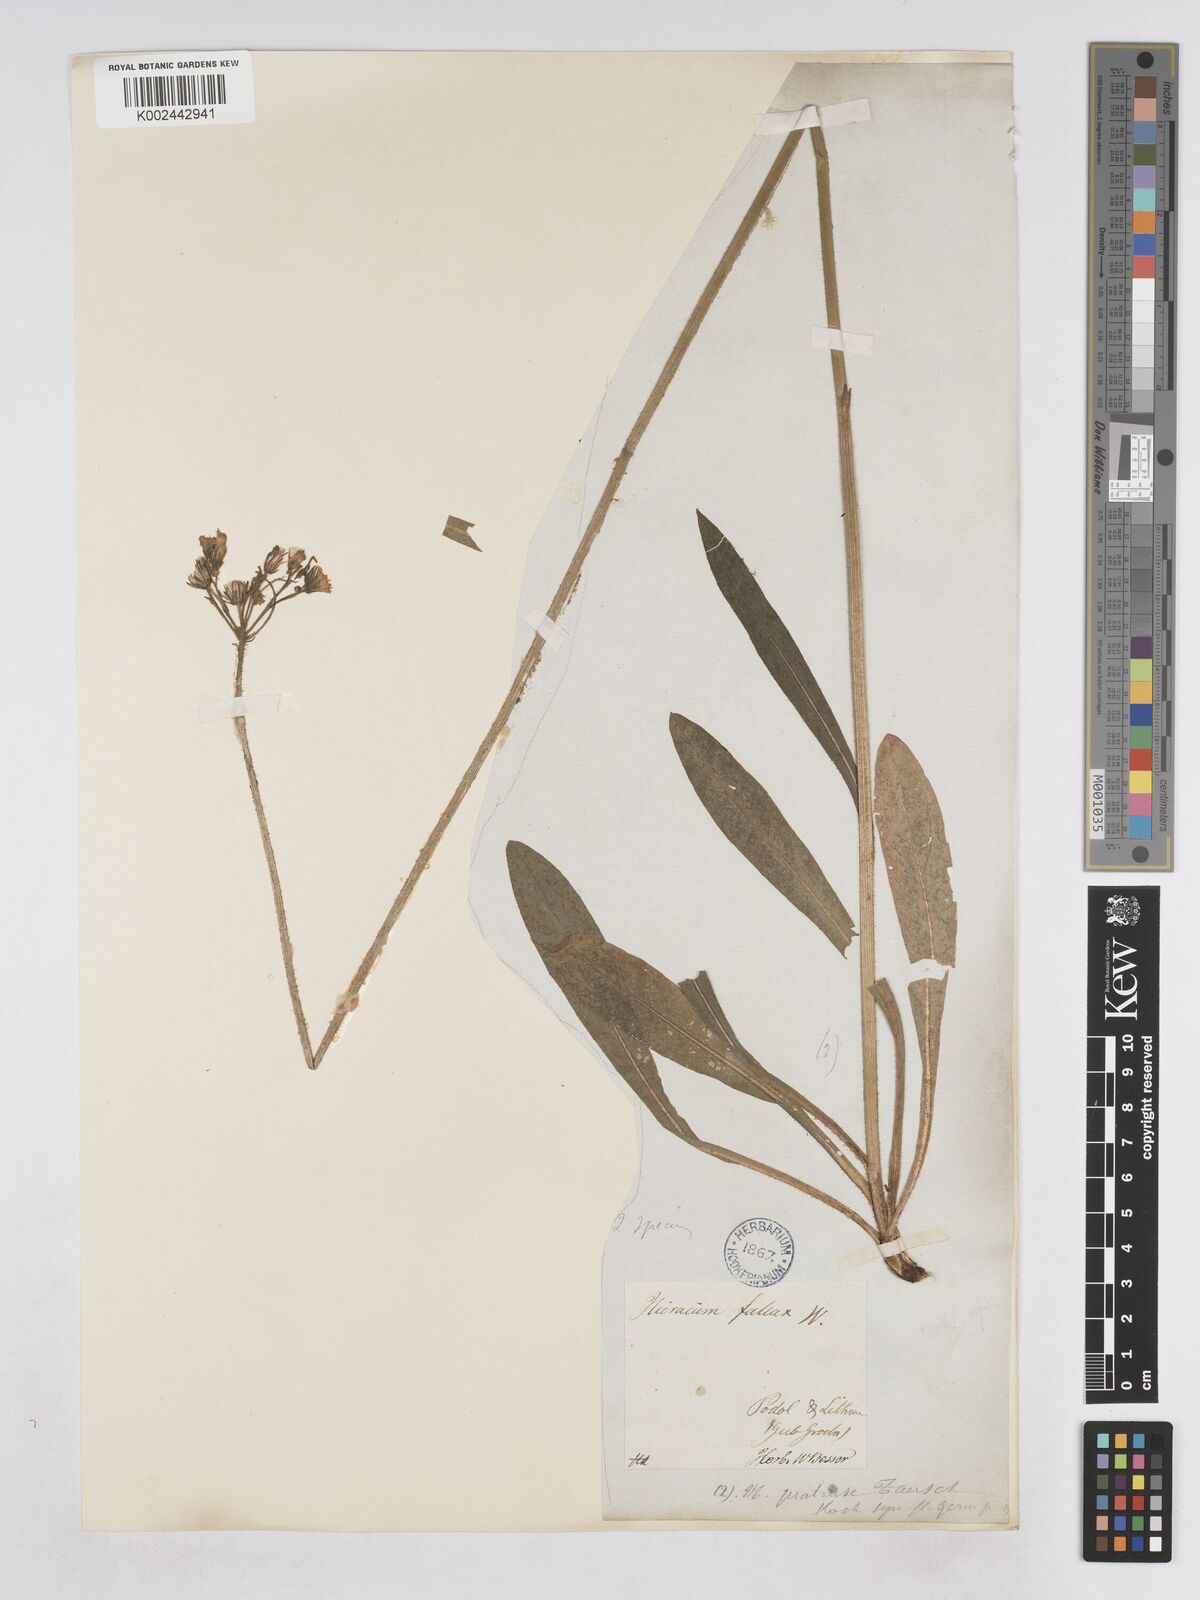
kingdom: Plantae
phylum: Tracheophyta
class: Magnoliopsida
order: Asterales
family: Asteraceae
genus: Pilosella
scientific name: Pilosella cymosiformis
